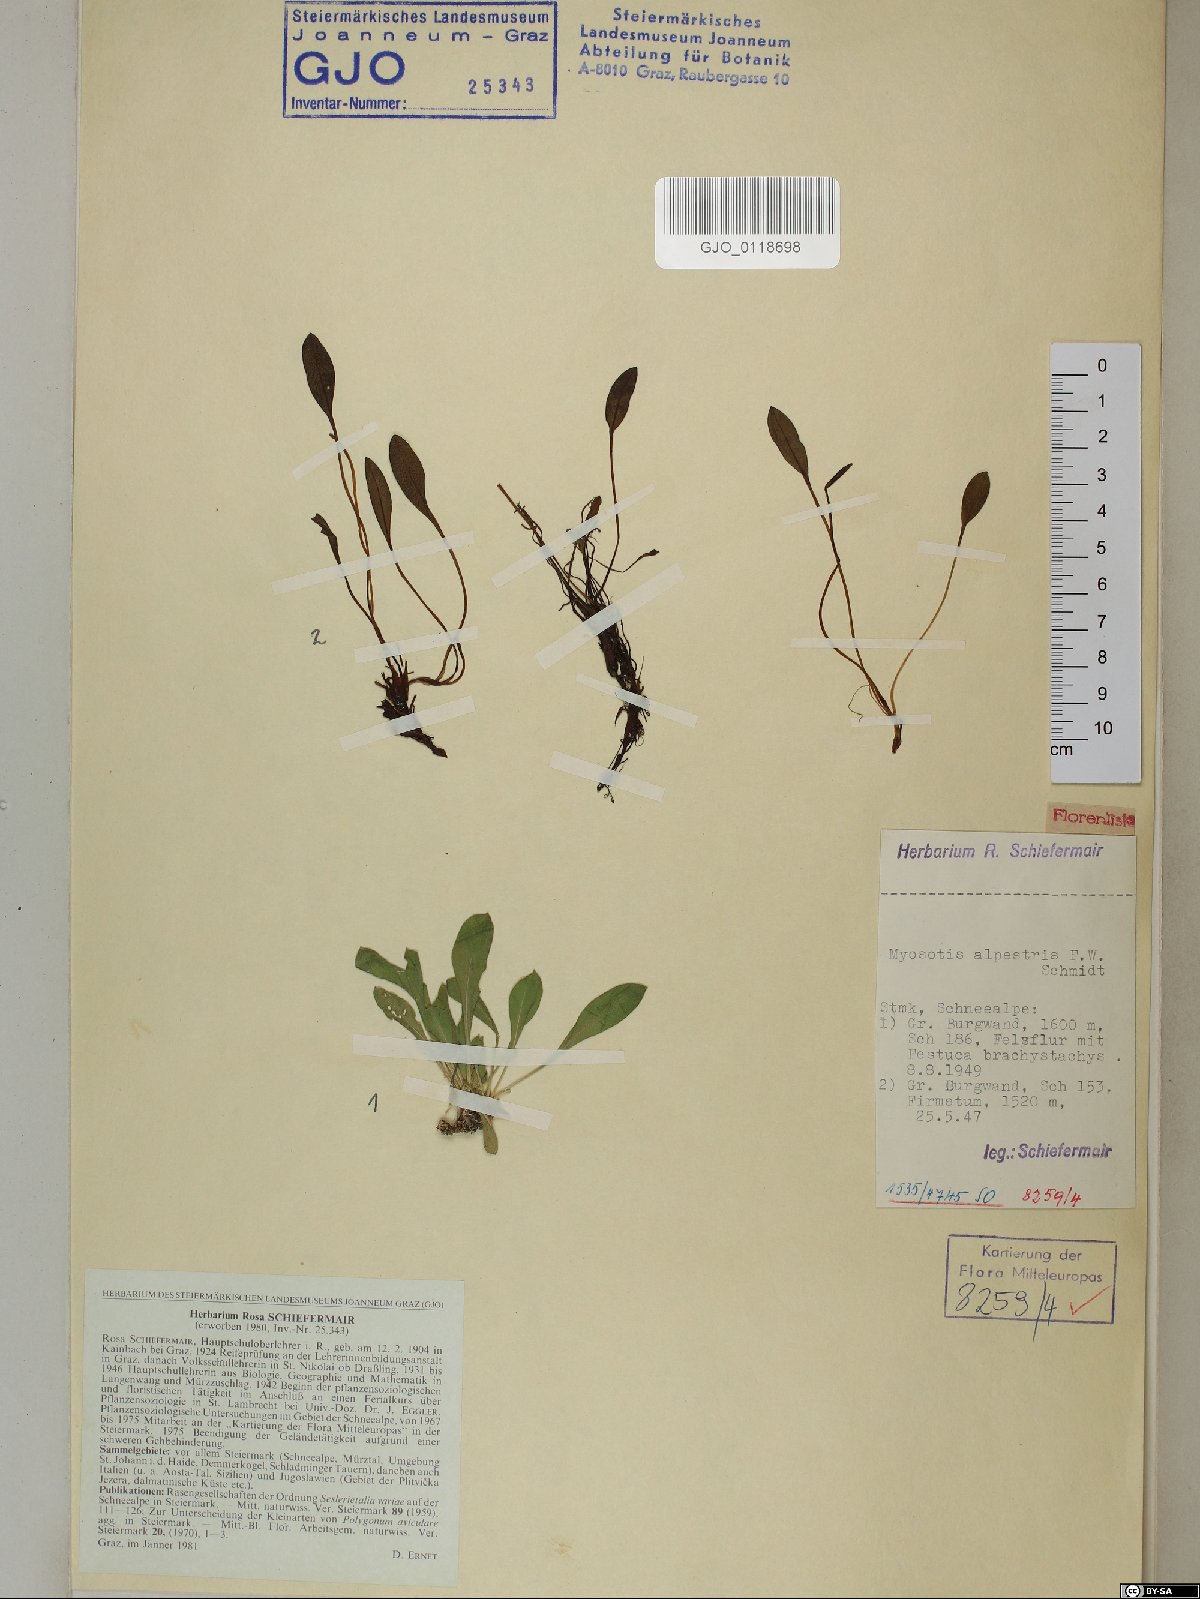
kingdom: Plantae
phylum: Tracheophyta
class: Magnoliopsida
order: Boraginales
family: Boraginaceae
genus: Myosotis
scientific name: Myosotis alpestris
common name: Alpine forget-me-not
